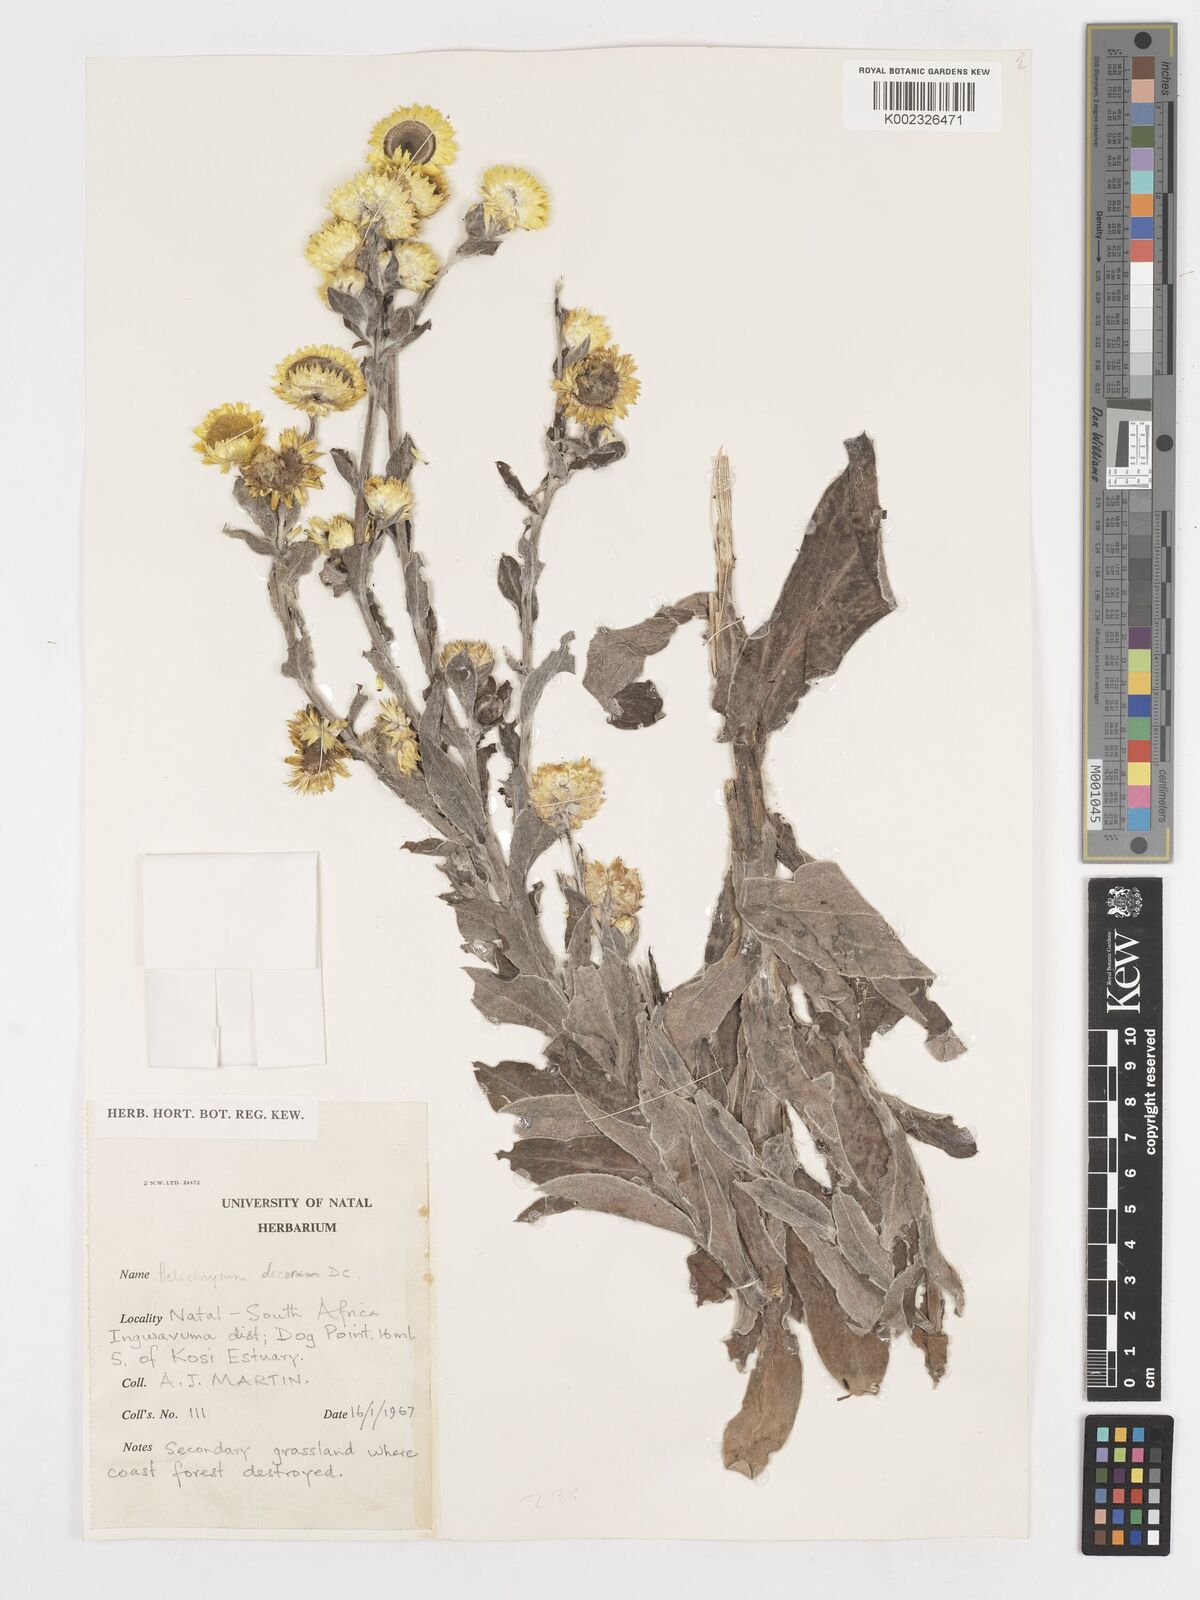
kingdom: Plantae
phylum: Tracheophyta
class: Magnoliopsida
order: Asterales
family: Asteraceae
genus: Helichrysum
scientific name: Helichrysum decorum
